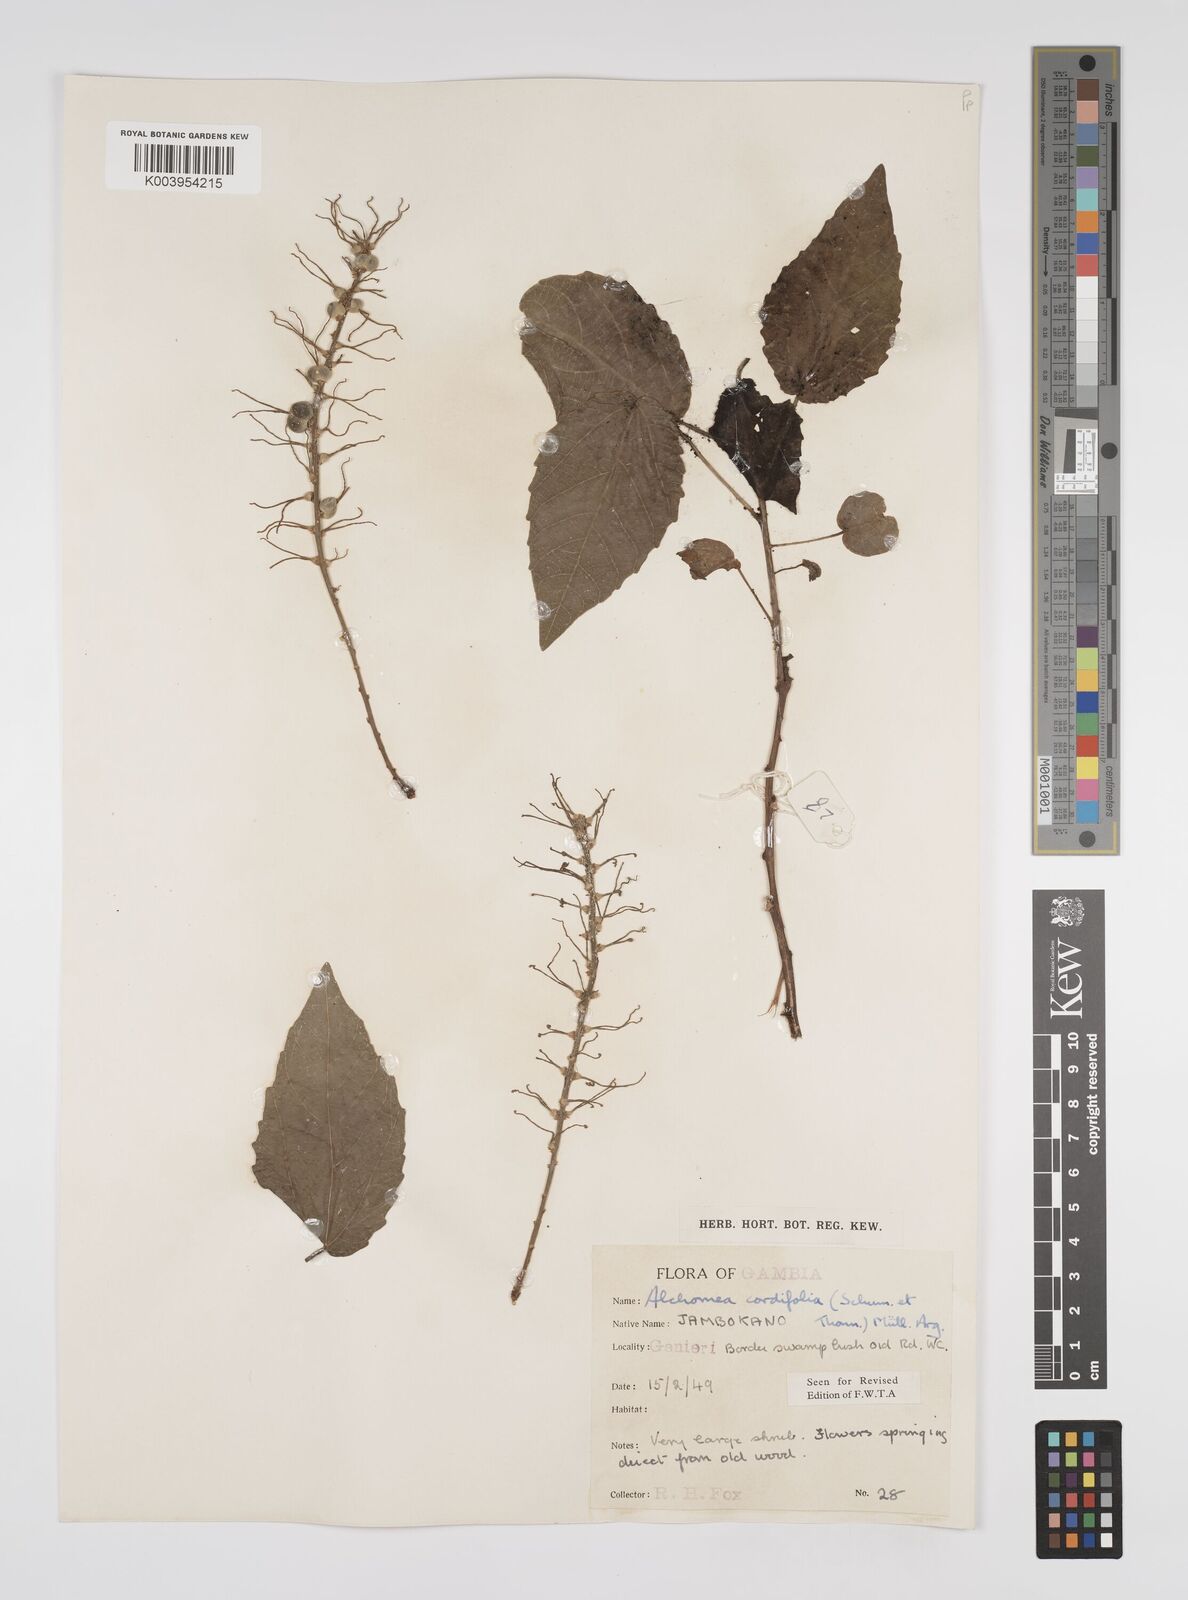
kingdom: Plantae
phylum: Tracheophyta
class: Magnoliopsida
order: Malpighiales
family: Euphorbiaceae
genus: Alchornea
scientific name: Alchornea cordifolia
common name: Christmasbush
